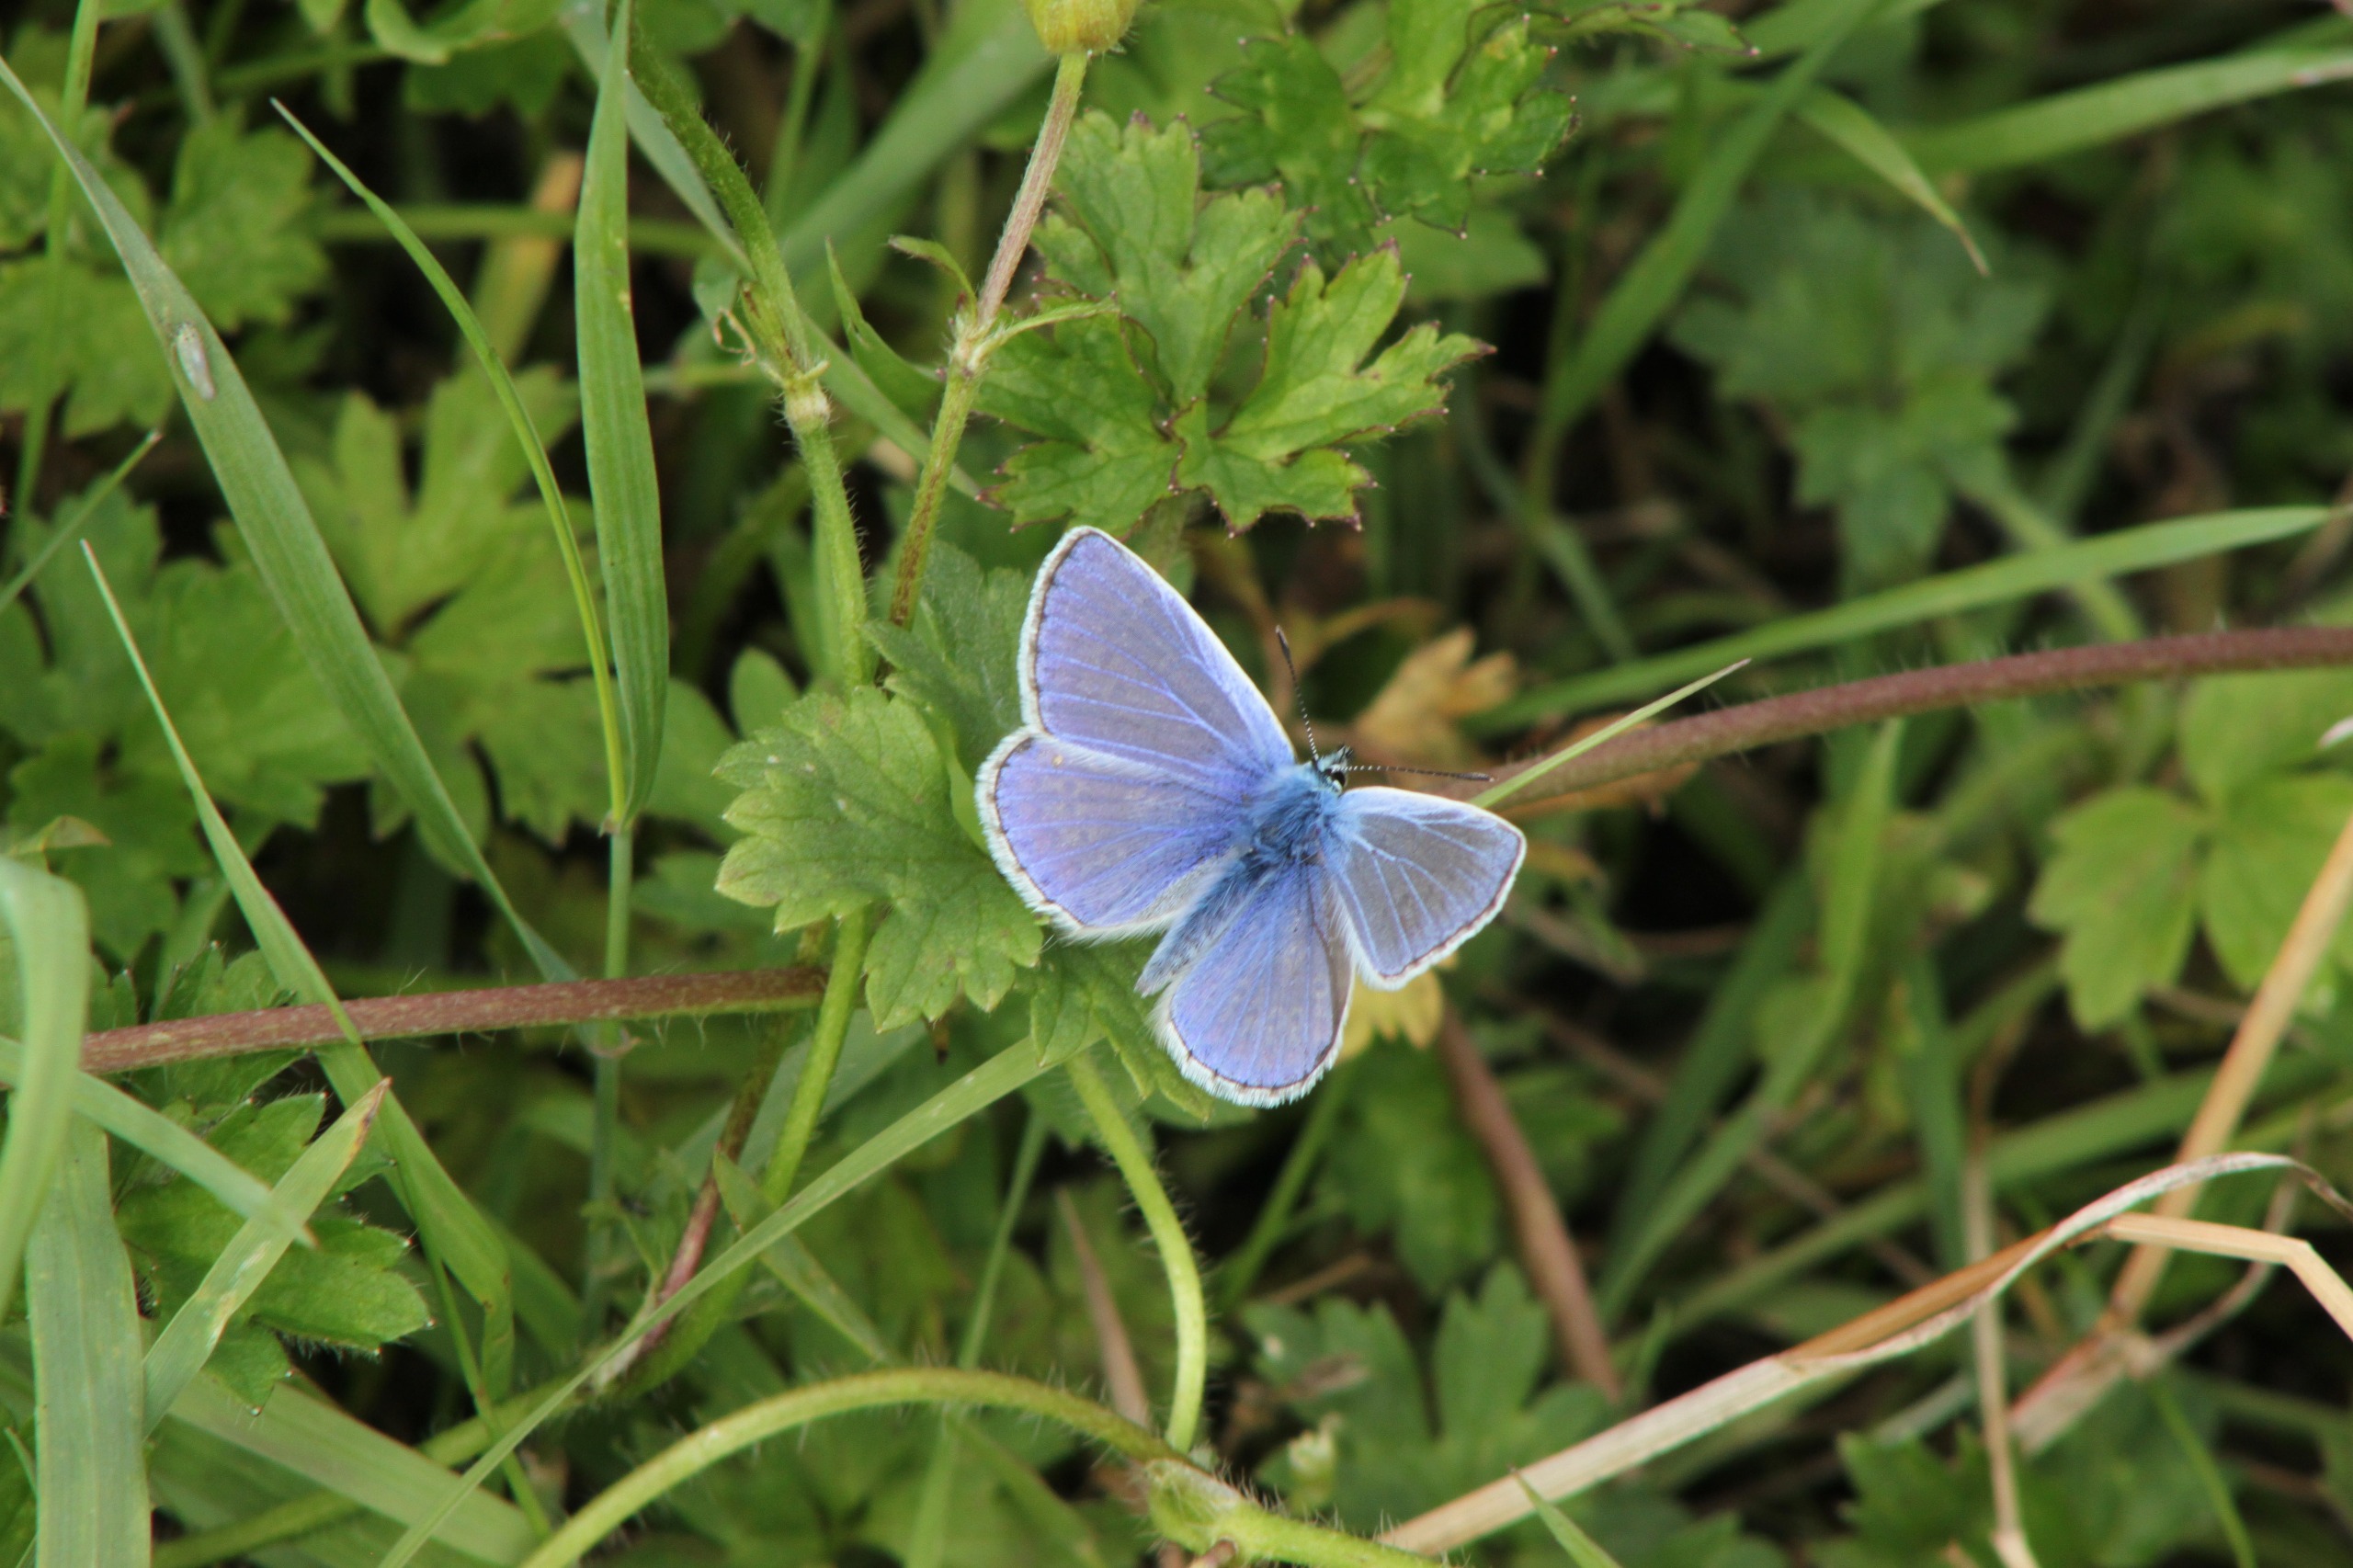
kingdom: Animalia
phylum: Arthropoda
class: Insecta
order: Lepidoptera
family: Lycaenidae
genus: Polyommatus
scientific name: Polyommatus icarus
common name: Almindelig blåfugl
